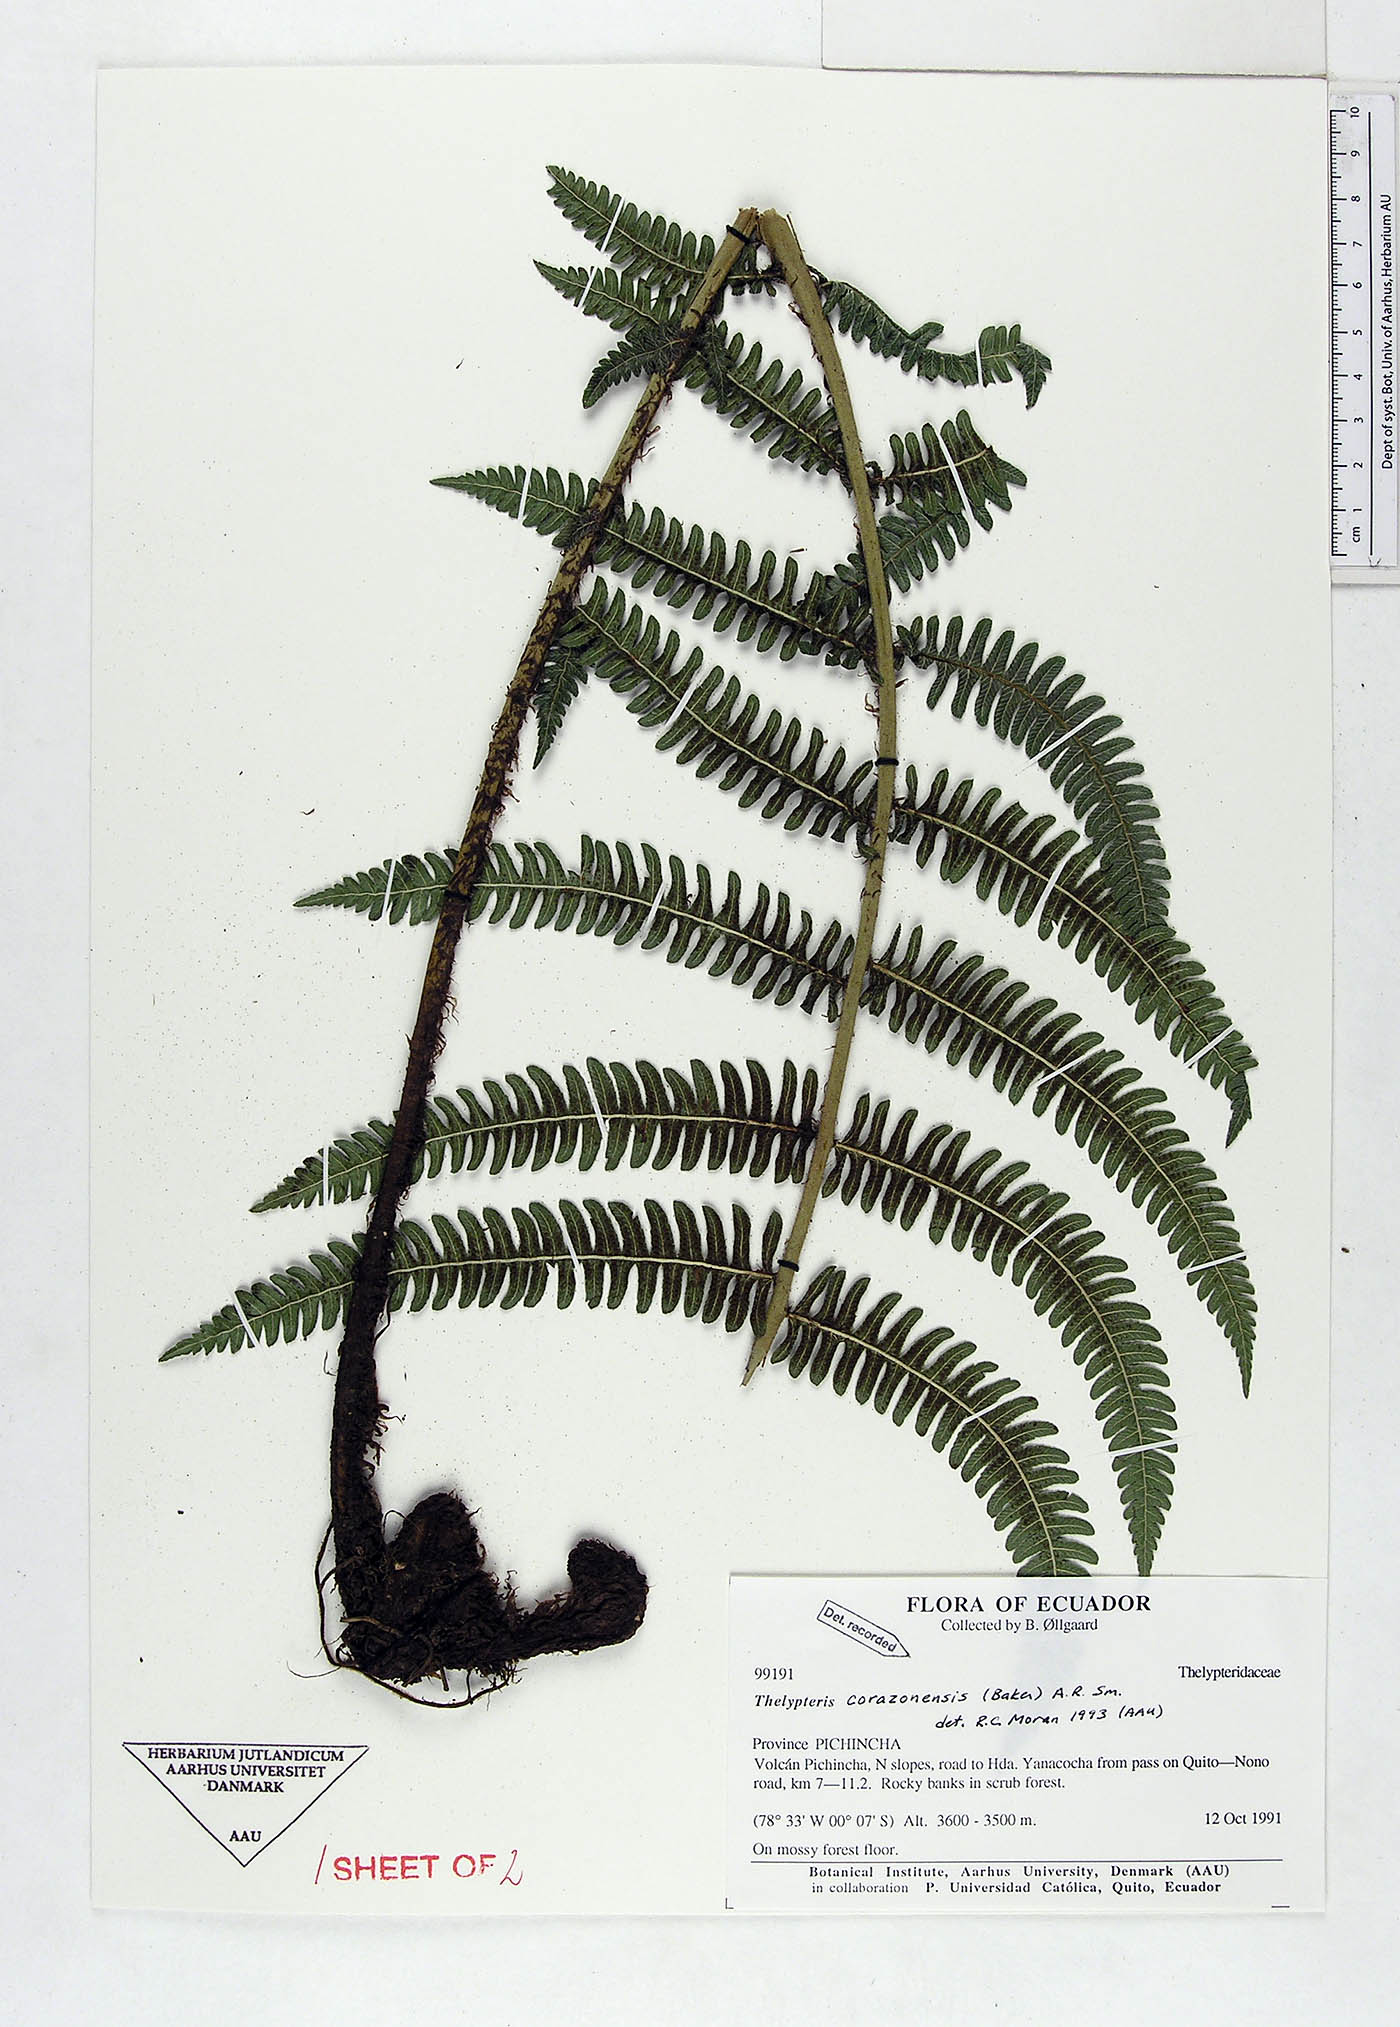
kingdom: Plantae
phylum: Tracheophyta
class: Polypodiopsida
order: Polypodiales
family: Thelypteridaceae
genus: Amauropelta
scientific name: Amauropelta corazonensis
